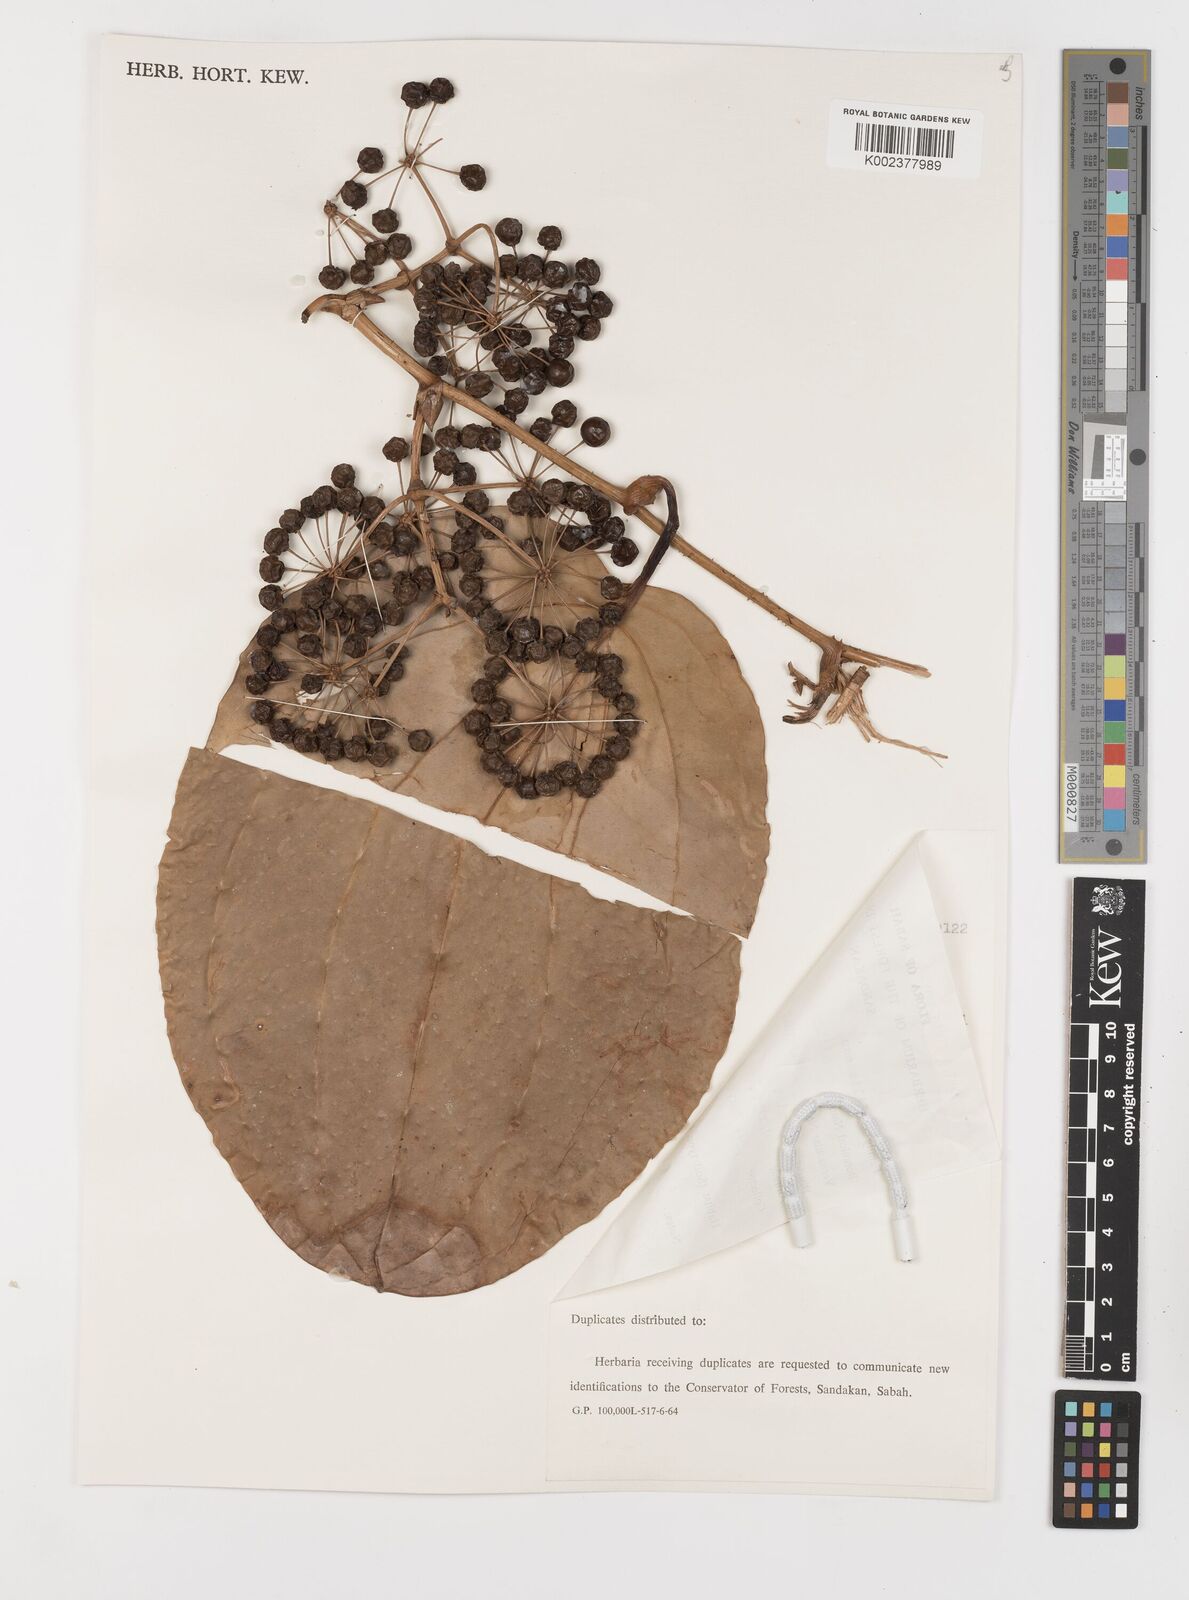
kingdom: Plantae
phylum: Tracheophyta
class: Liliopsida
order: Liliales
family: Smilacaceae
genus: Smilax
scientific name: Smilax
